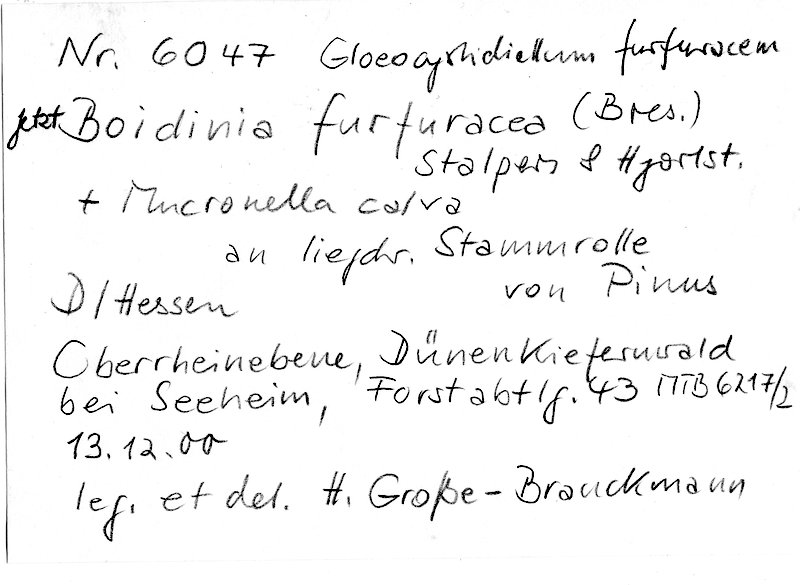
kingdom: Plantae
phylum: Tracheophyta
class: Pinopsida
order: Pinales
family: Pinaceae
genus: Pinus
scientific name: Pinus
